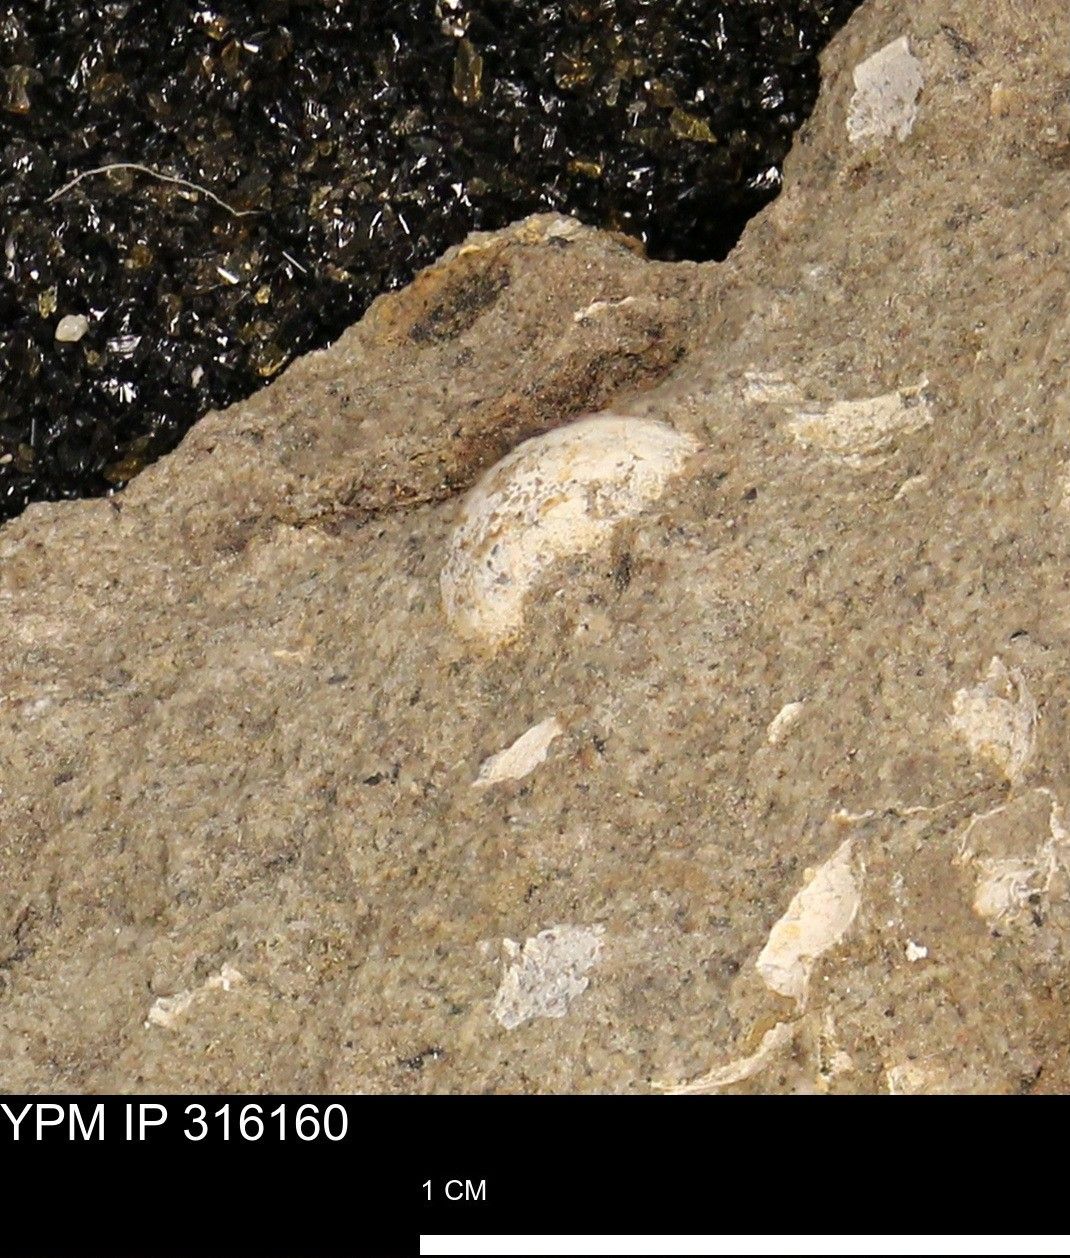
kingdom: Animalia
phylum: Mollusca
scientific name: Mollusca
